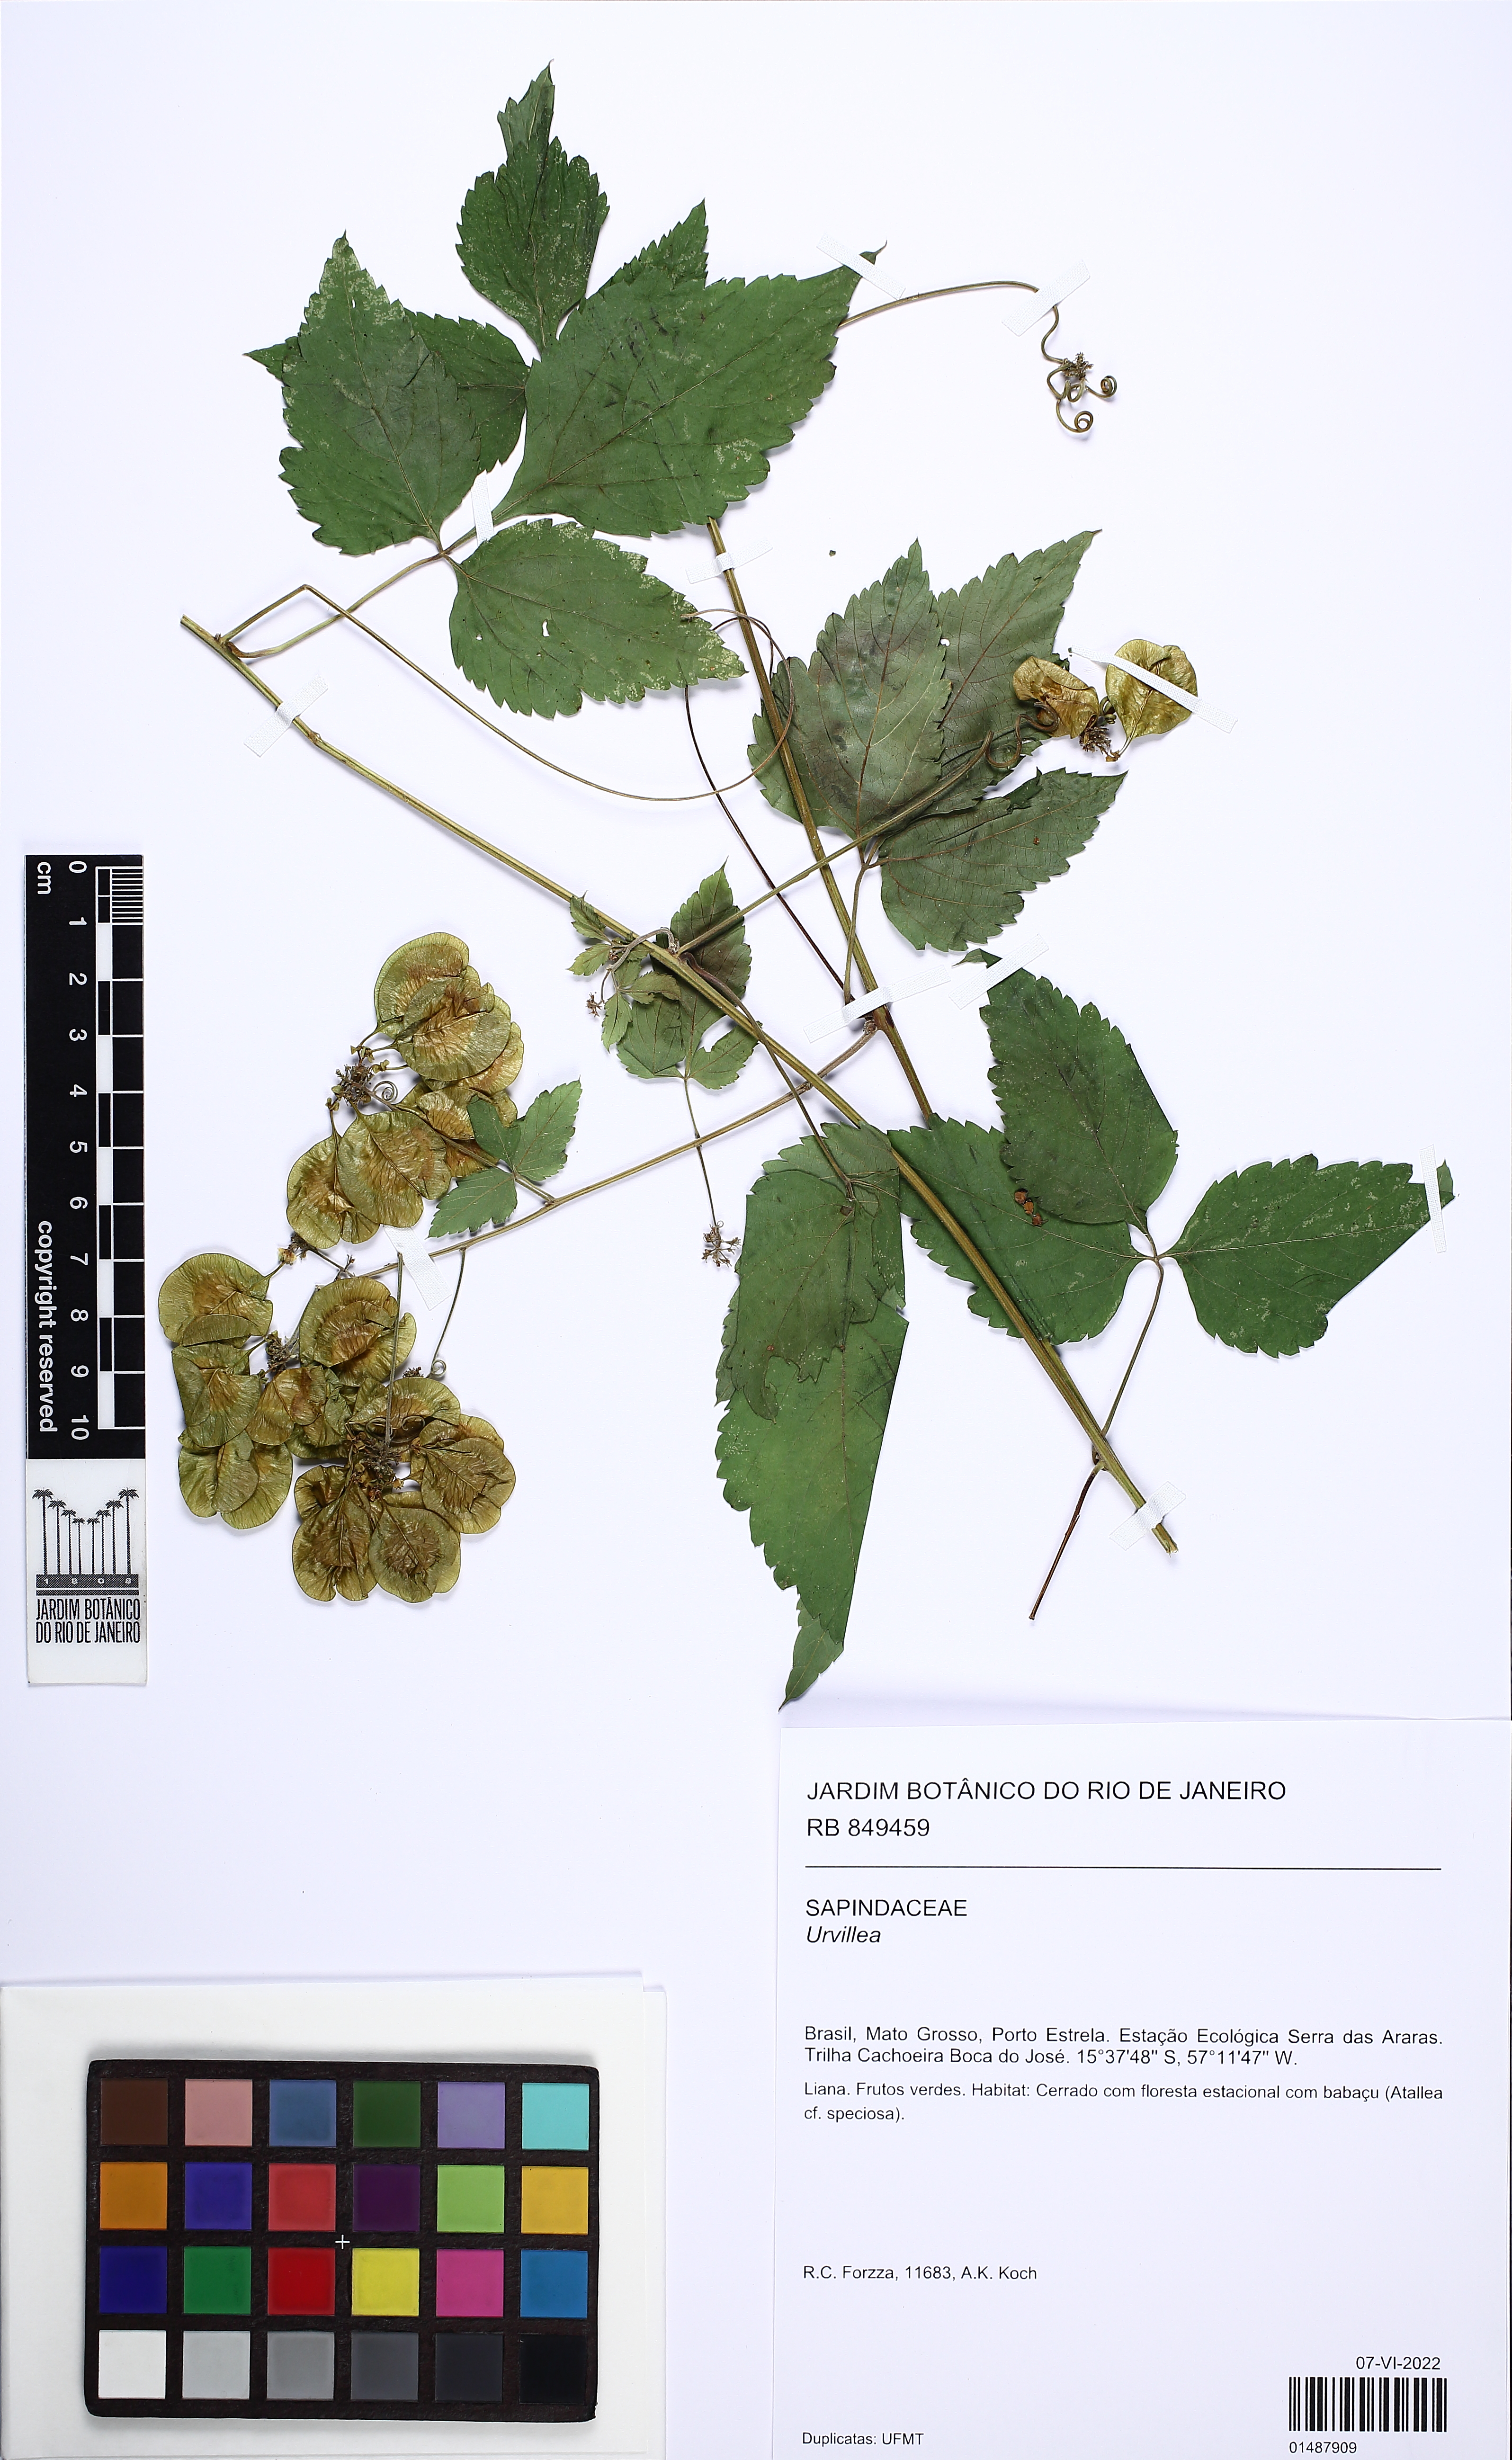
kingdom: Plantae
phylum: Tracheophyta
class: Magnoliopsida
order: Sapindales
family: Sapindaceae
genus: Urvillea
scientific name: Urvillea
